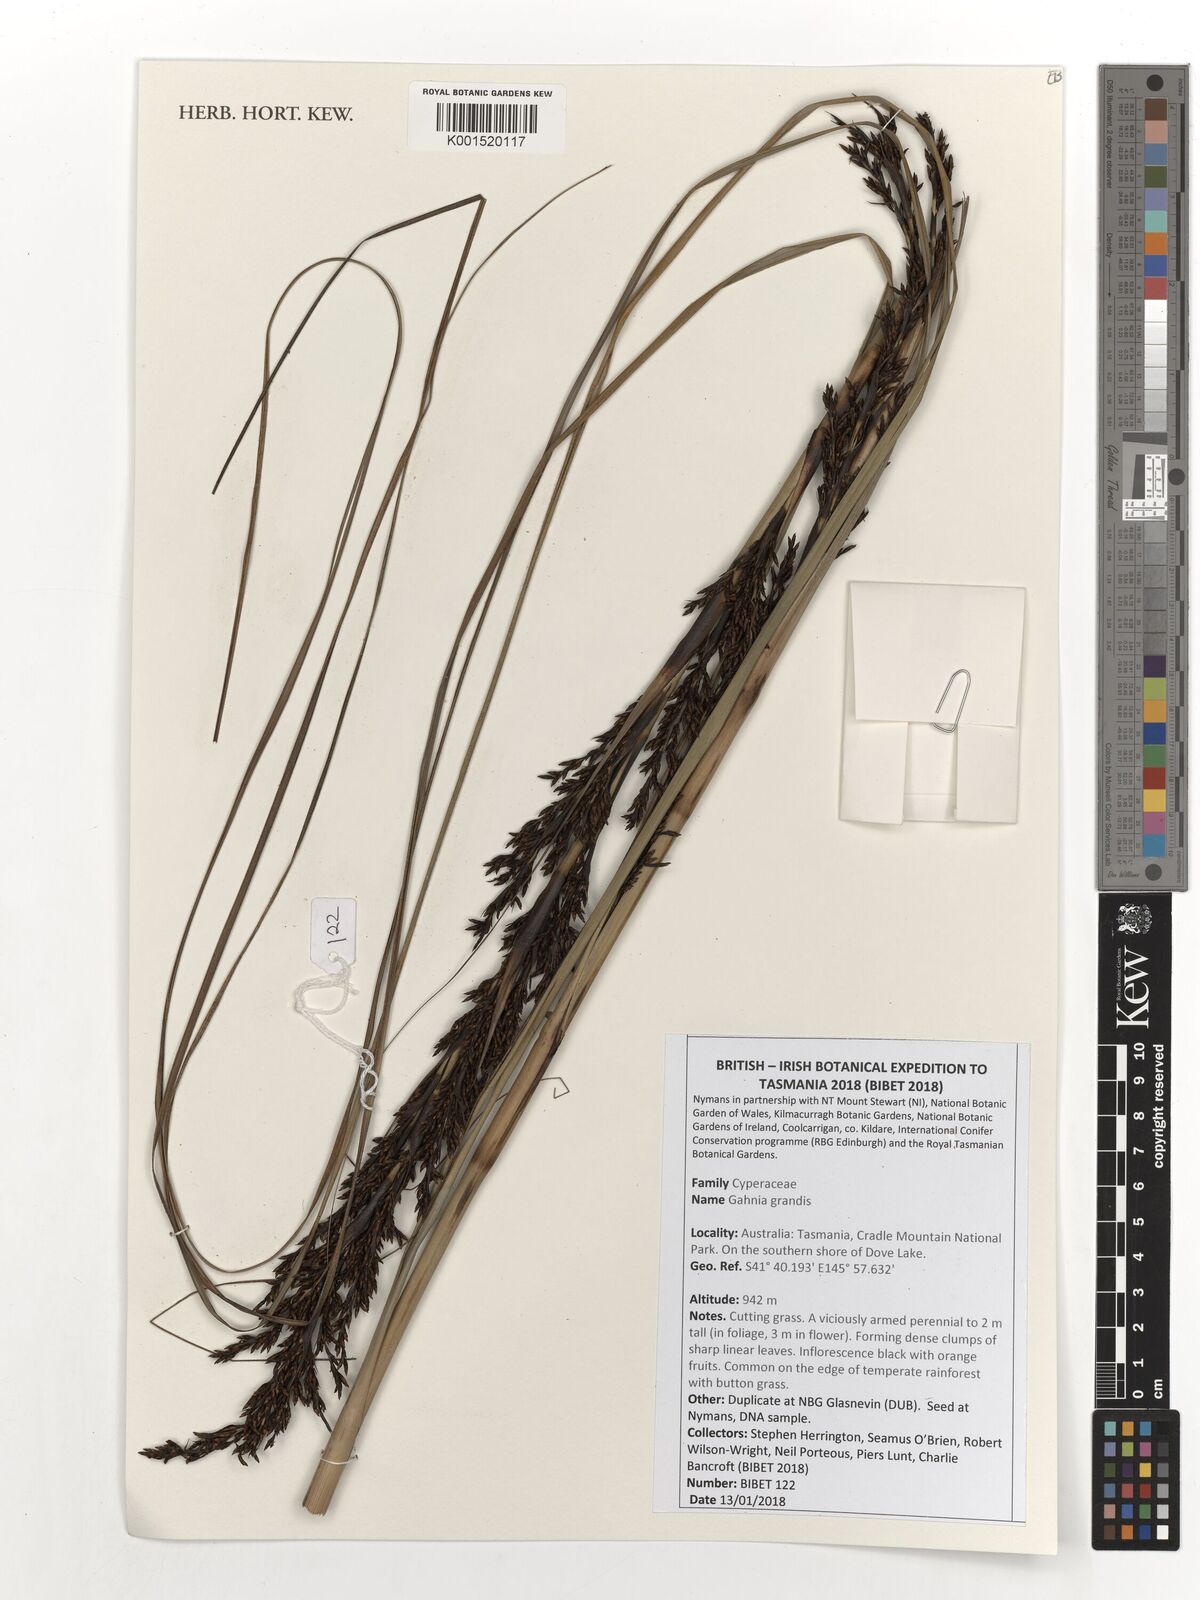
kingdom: Plantae
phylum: Tracheophyta
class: Liliopsida
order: Poales
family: Cyperaceae
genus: Gahnia
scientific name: Gahnia grandis
